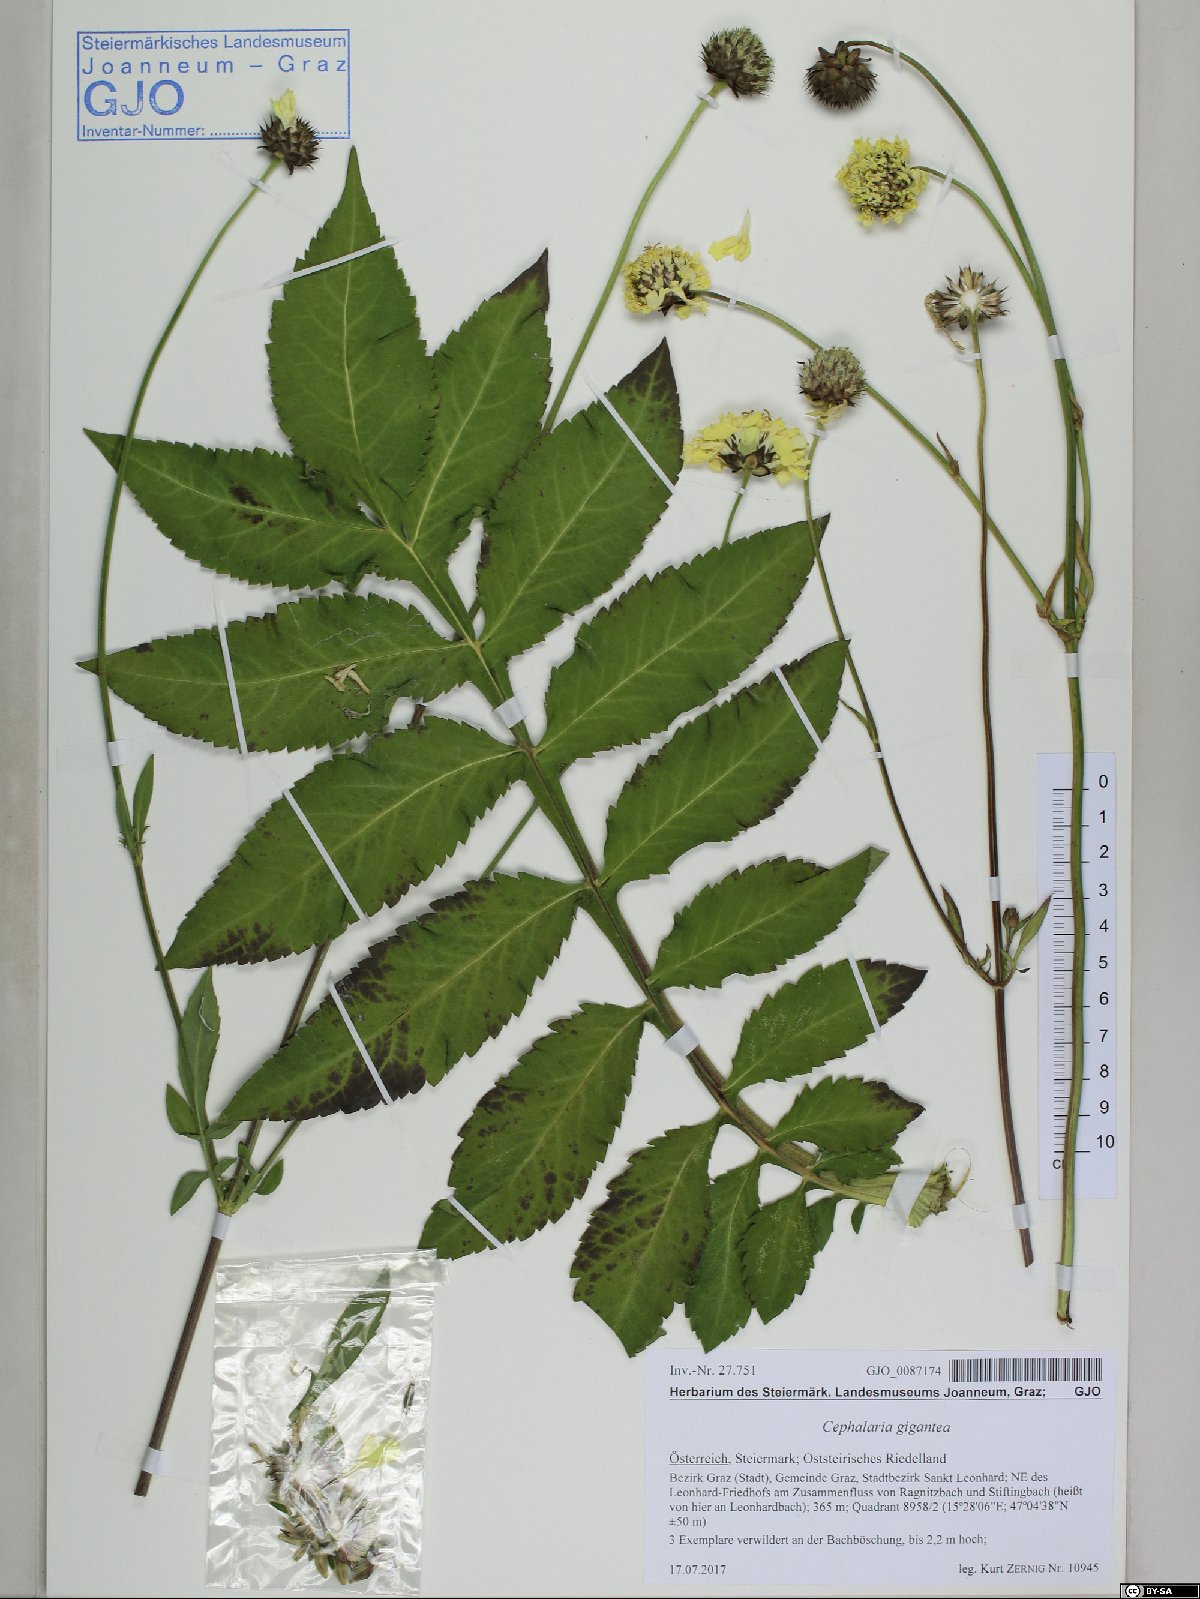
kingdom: Plantae
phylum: Tracheophyta
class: Magnoliopsida
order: Dipsacales
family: Caprifoliaceae
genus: Cephalaria
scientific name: Cephalaria gigantea
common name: Tatarian cephalaria
